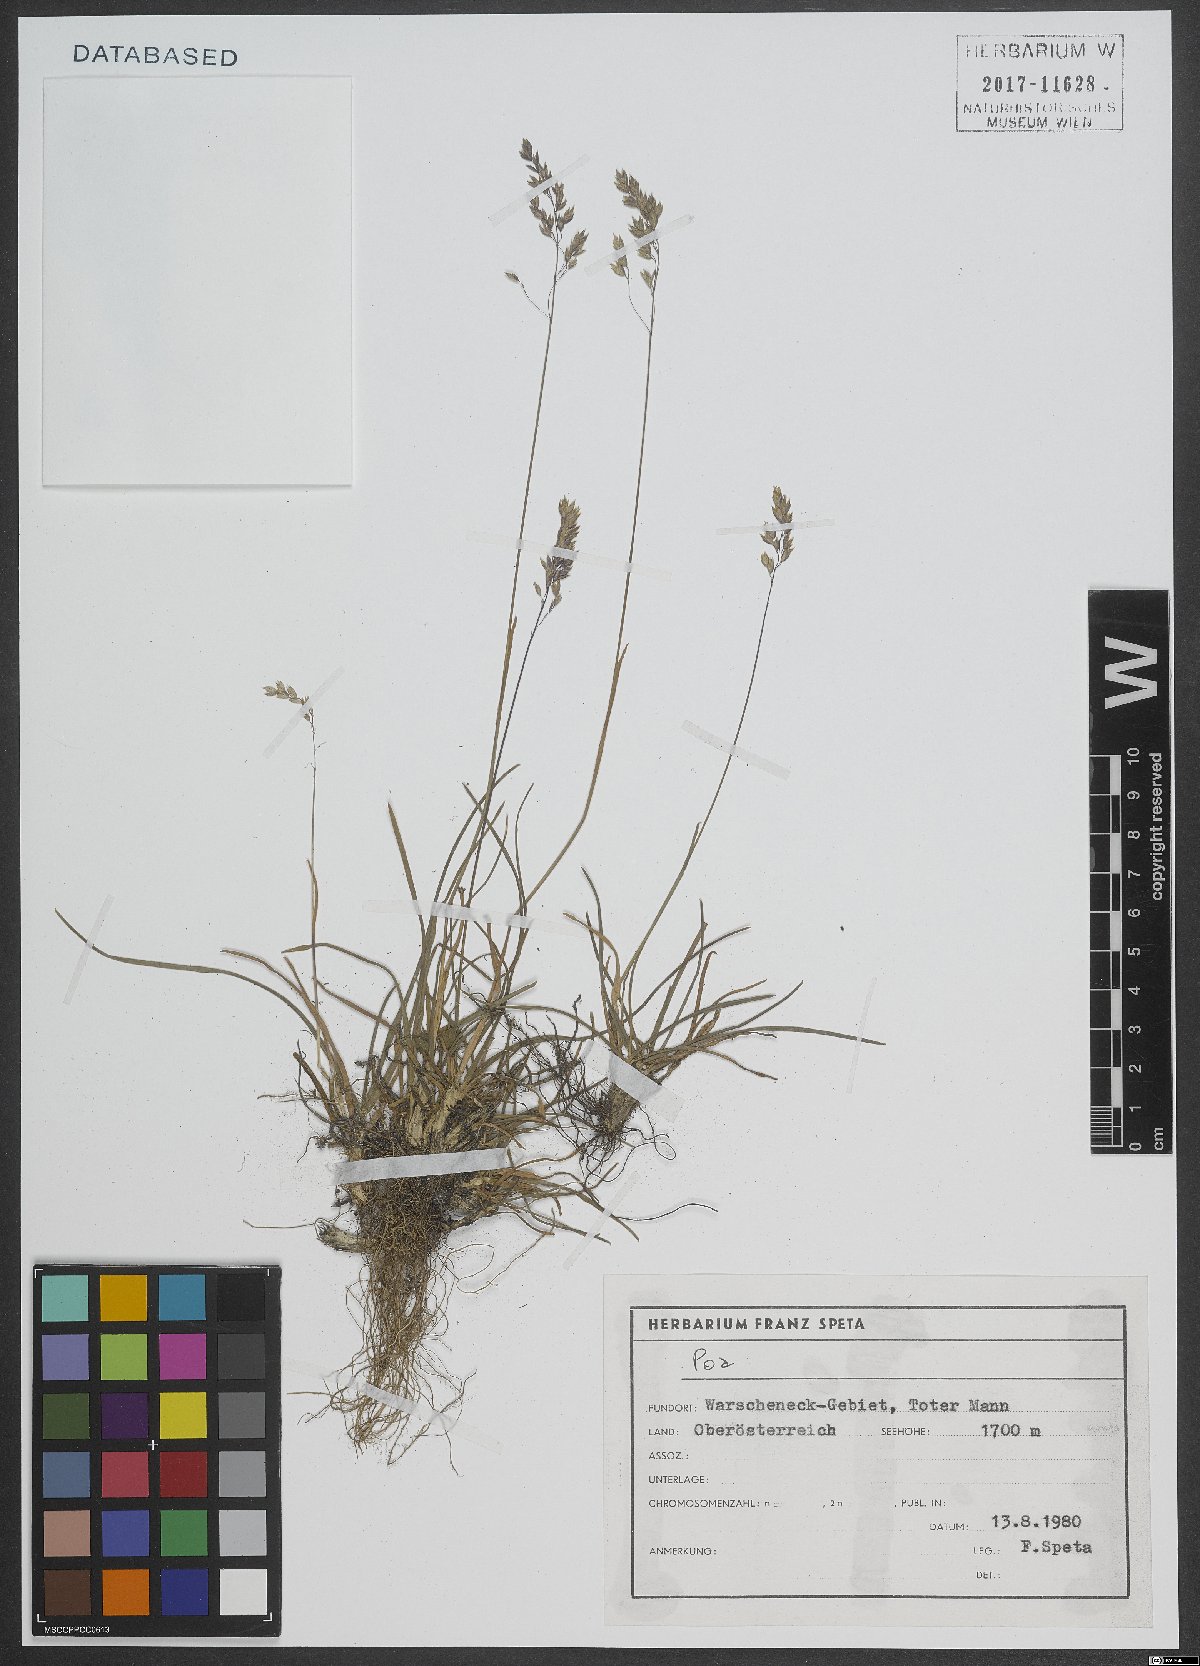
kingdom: Plantae
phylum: Tracheophyta
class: Liliopsida
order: Poales
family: Poaceae
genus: Poa
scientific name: Poa
